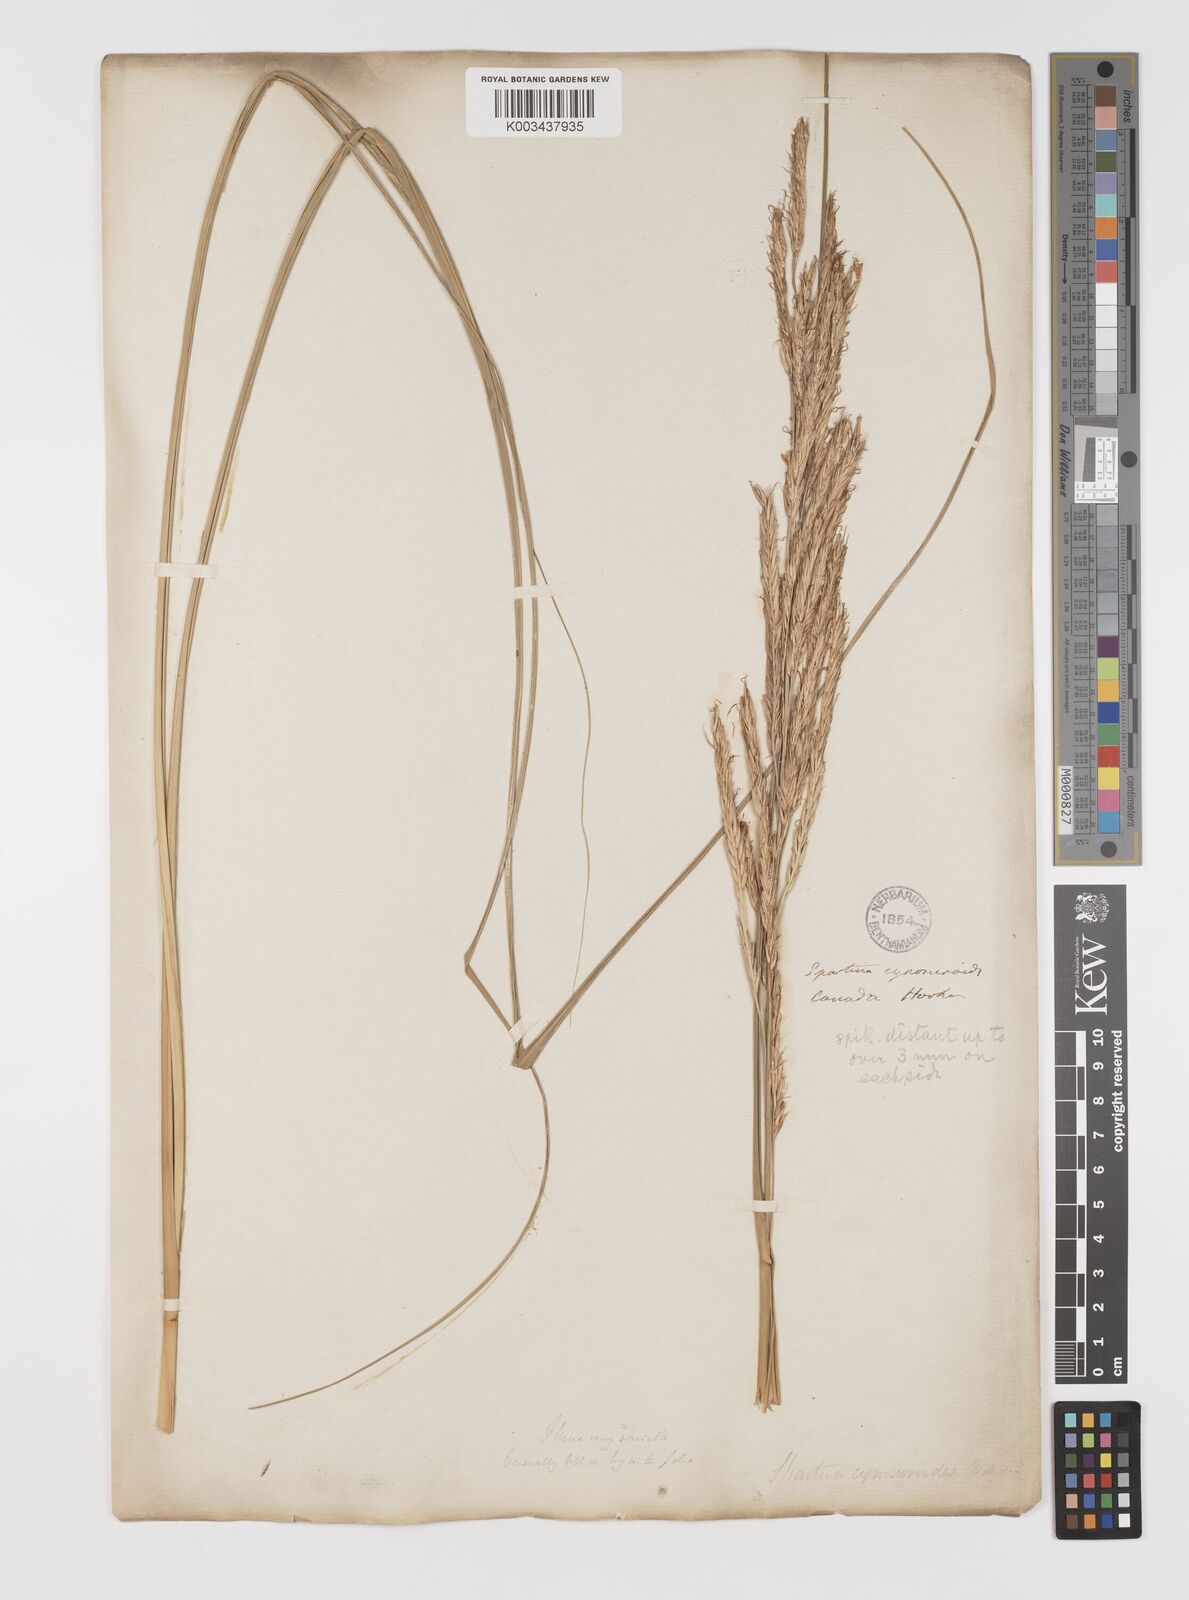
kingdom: Plantae
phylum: Tracheophyta
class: Liliopsida
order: Poales
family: Poaceae
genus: Sporobolus
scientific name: Sporobolus michauxianus
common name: Freshwater cordgrass
